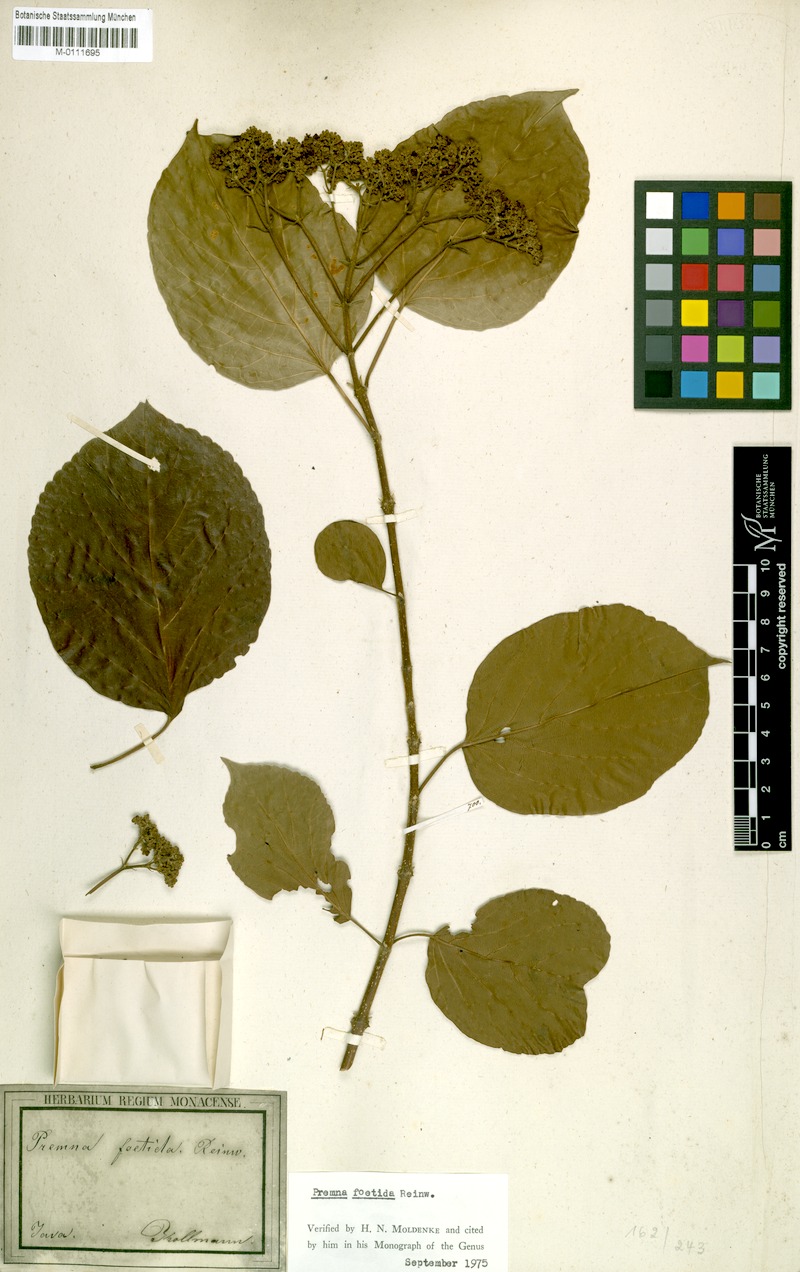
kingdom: Plantae
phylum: Tracheophyta
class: Magnoliopsida
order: Lamiales
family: Lamiaceae
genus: Premna
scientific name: Premna serratifolia
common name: Bastard guelder
